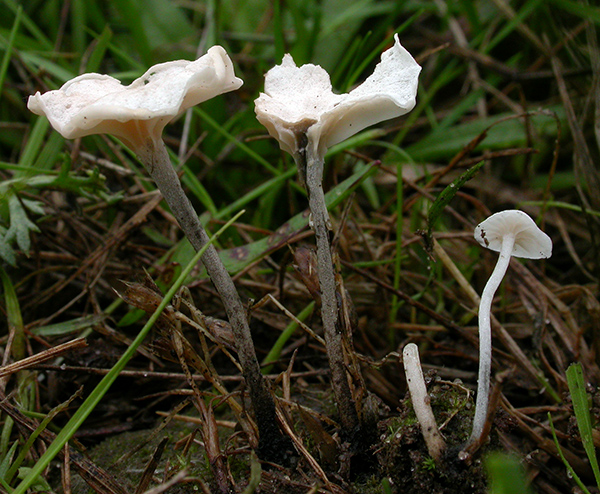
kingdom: Fungi
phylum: Basidiomycota
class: Agaricomycetes
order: Agaricales
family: Omphalotaceae
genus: Marasmiellus
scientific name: Marasmiellus tricolor
